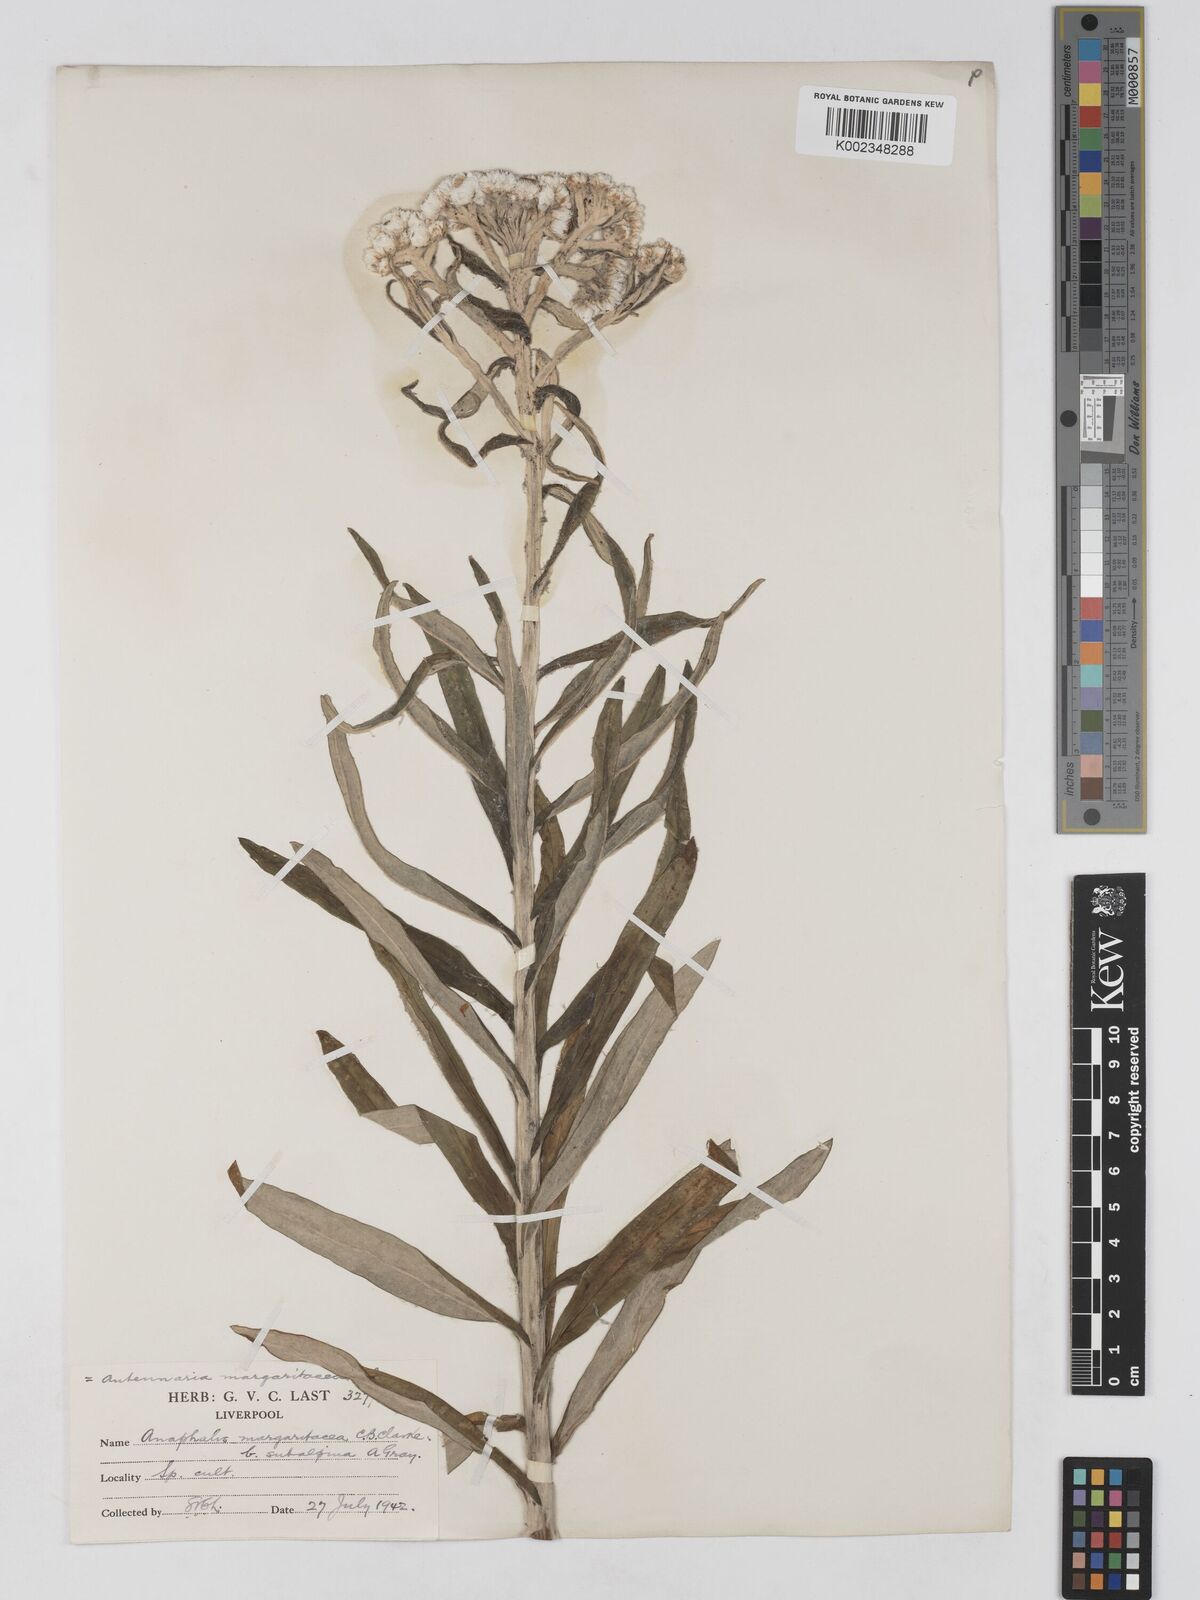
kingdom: Plantae
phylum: Tracheophyta
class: Magnoliopsida
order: Asterales
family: Asteraceae
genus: Anaphalis
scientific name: Anaphalis margaritacea
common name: Pearly everlasting
